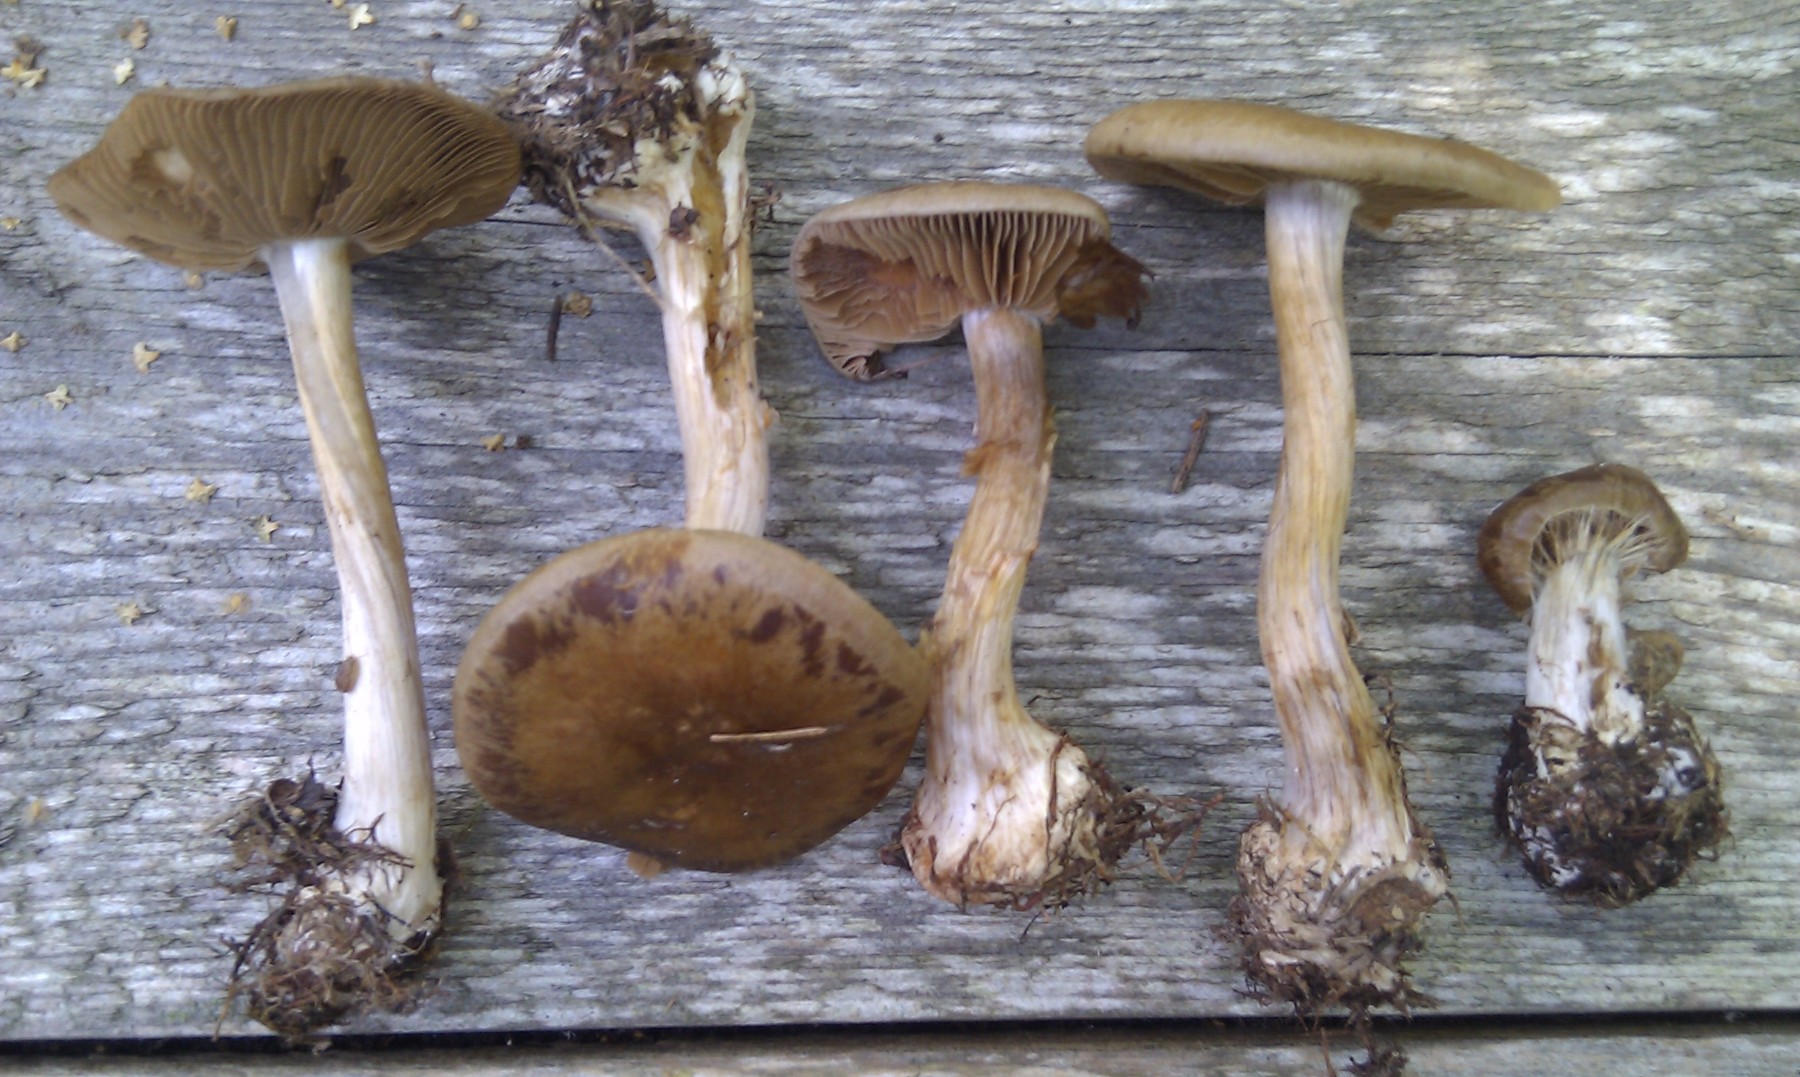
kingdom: Fungi
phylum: Basidiomycota
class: Agaricomycetes
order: Agaricales
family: Cortinariaceae
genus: Thaxterogaster
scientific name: Thaxterogaster sphagnophilus
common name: vandplettet slørhat
